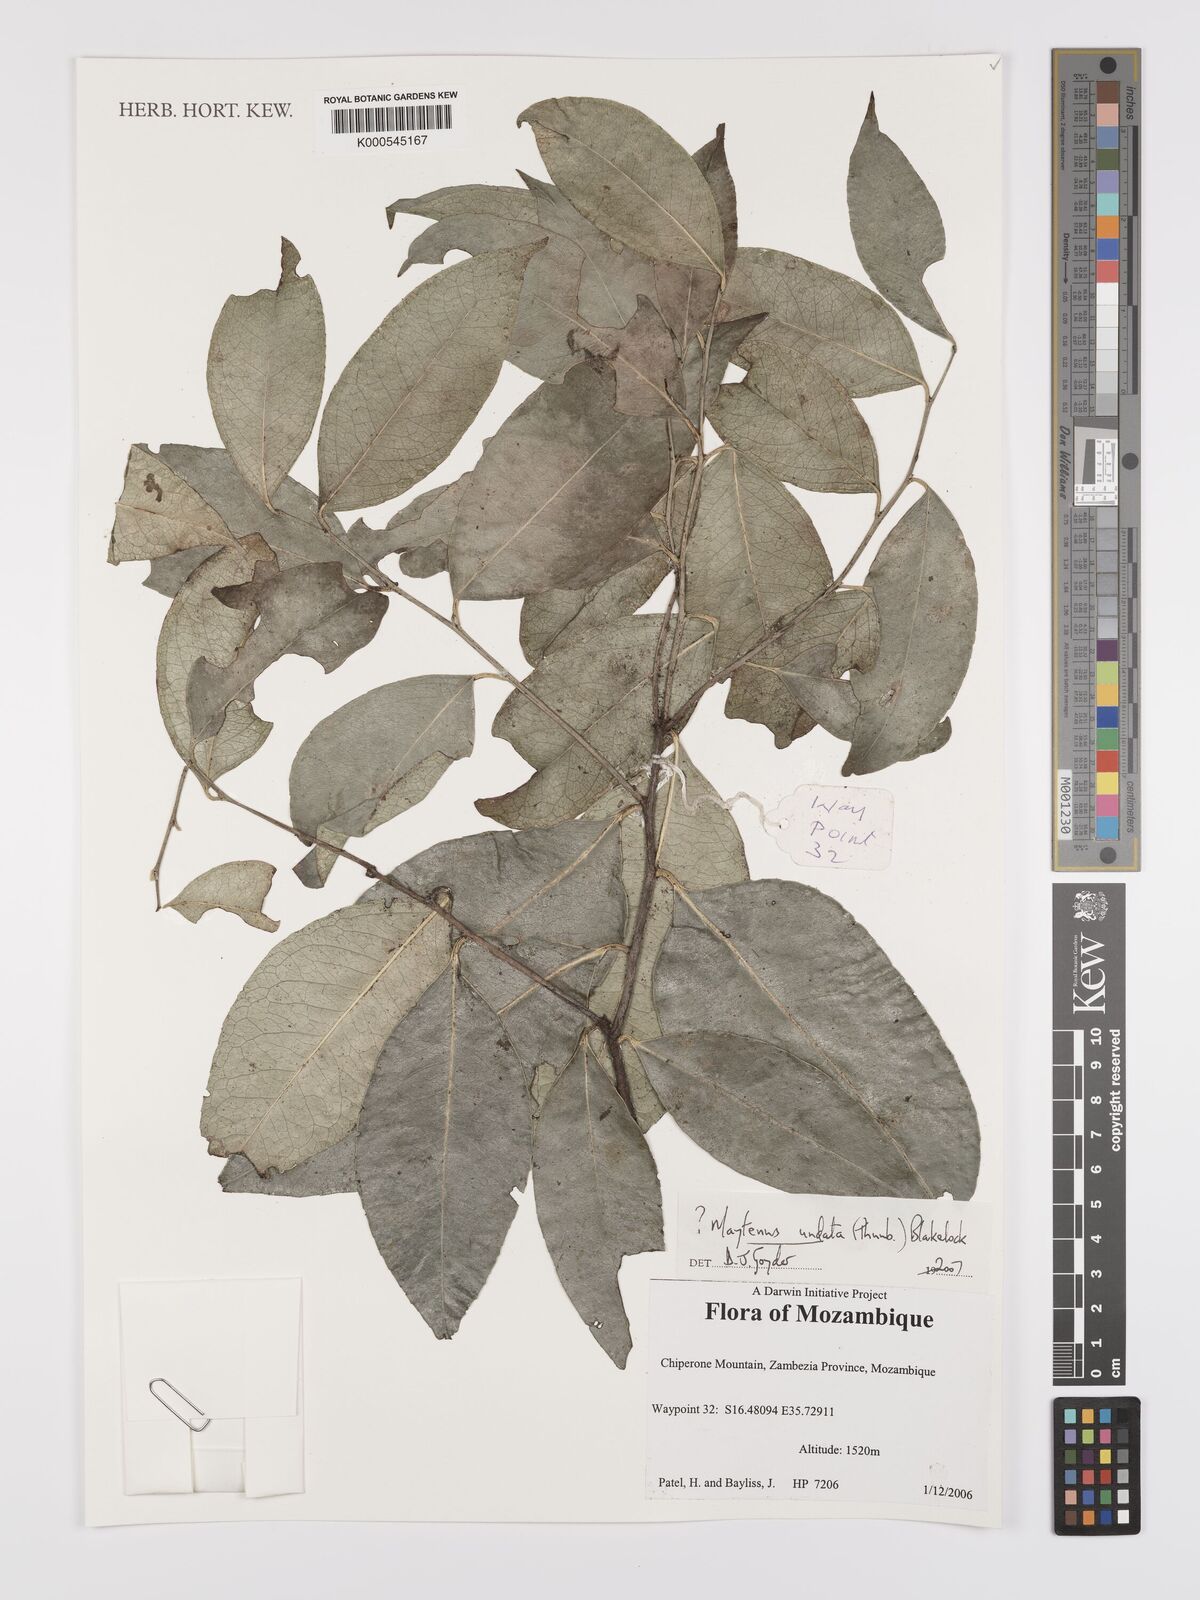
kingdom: Plantae
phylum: Tracheophyta
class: Magnoliopsida
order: Celastrales
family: Celastraceae
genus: Gymnosporia
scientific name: Gymnosporia undata
